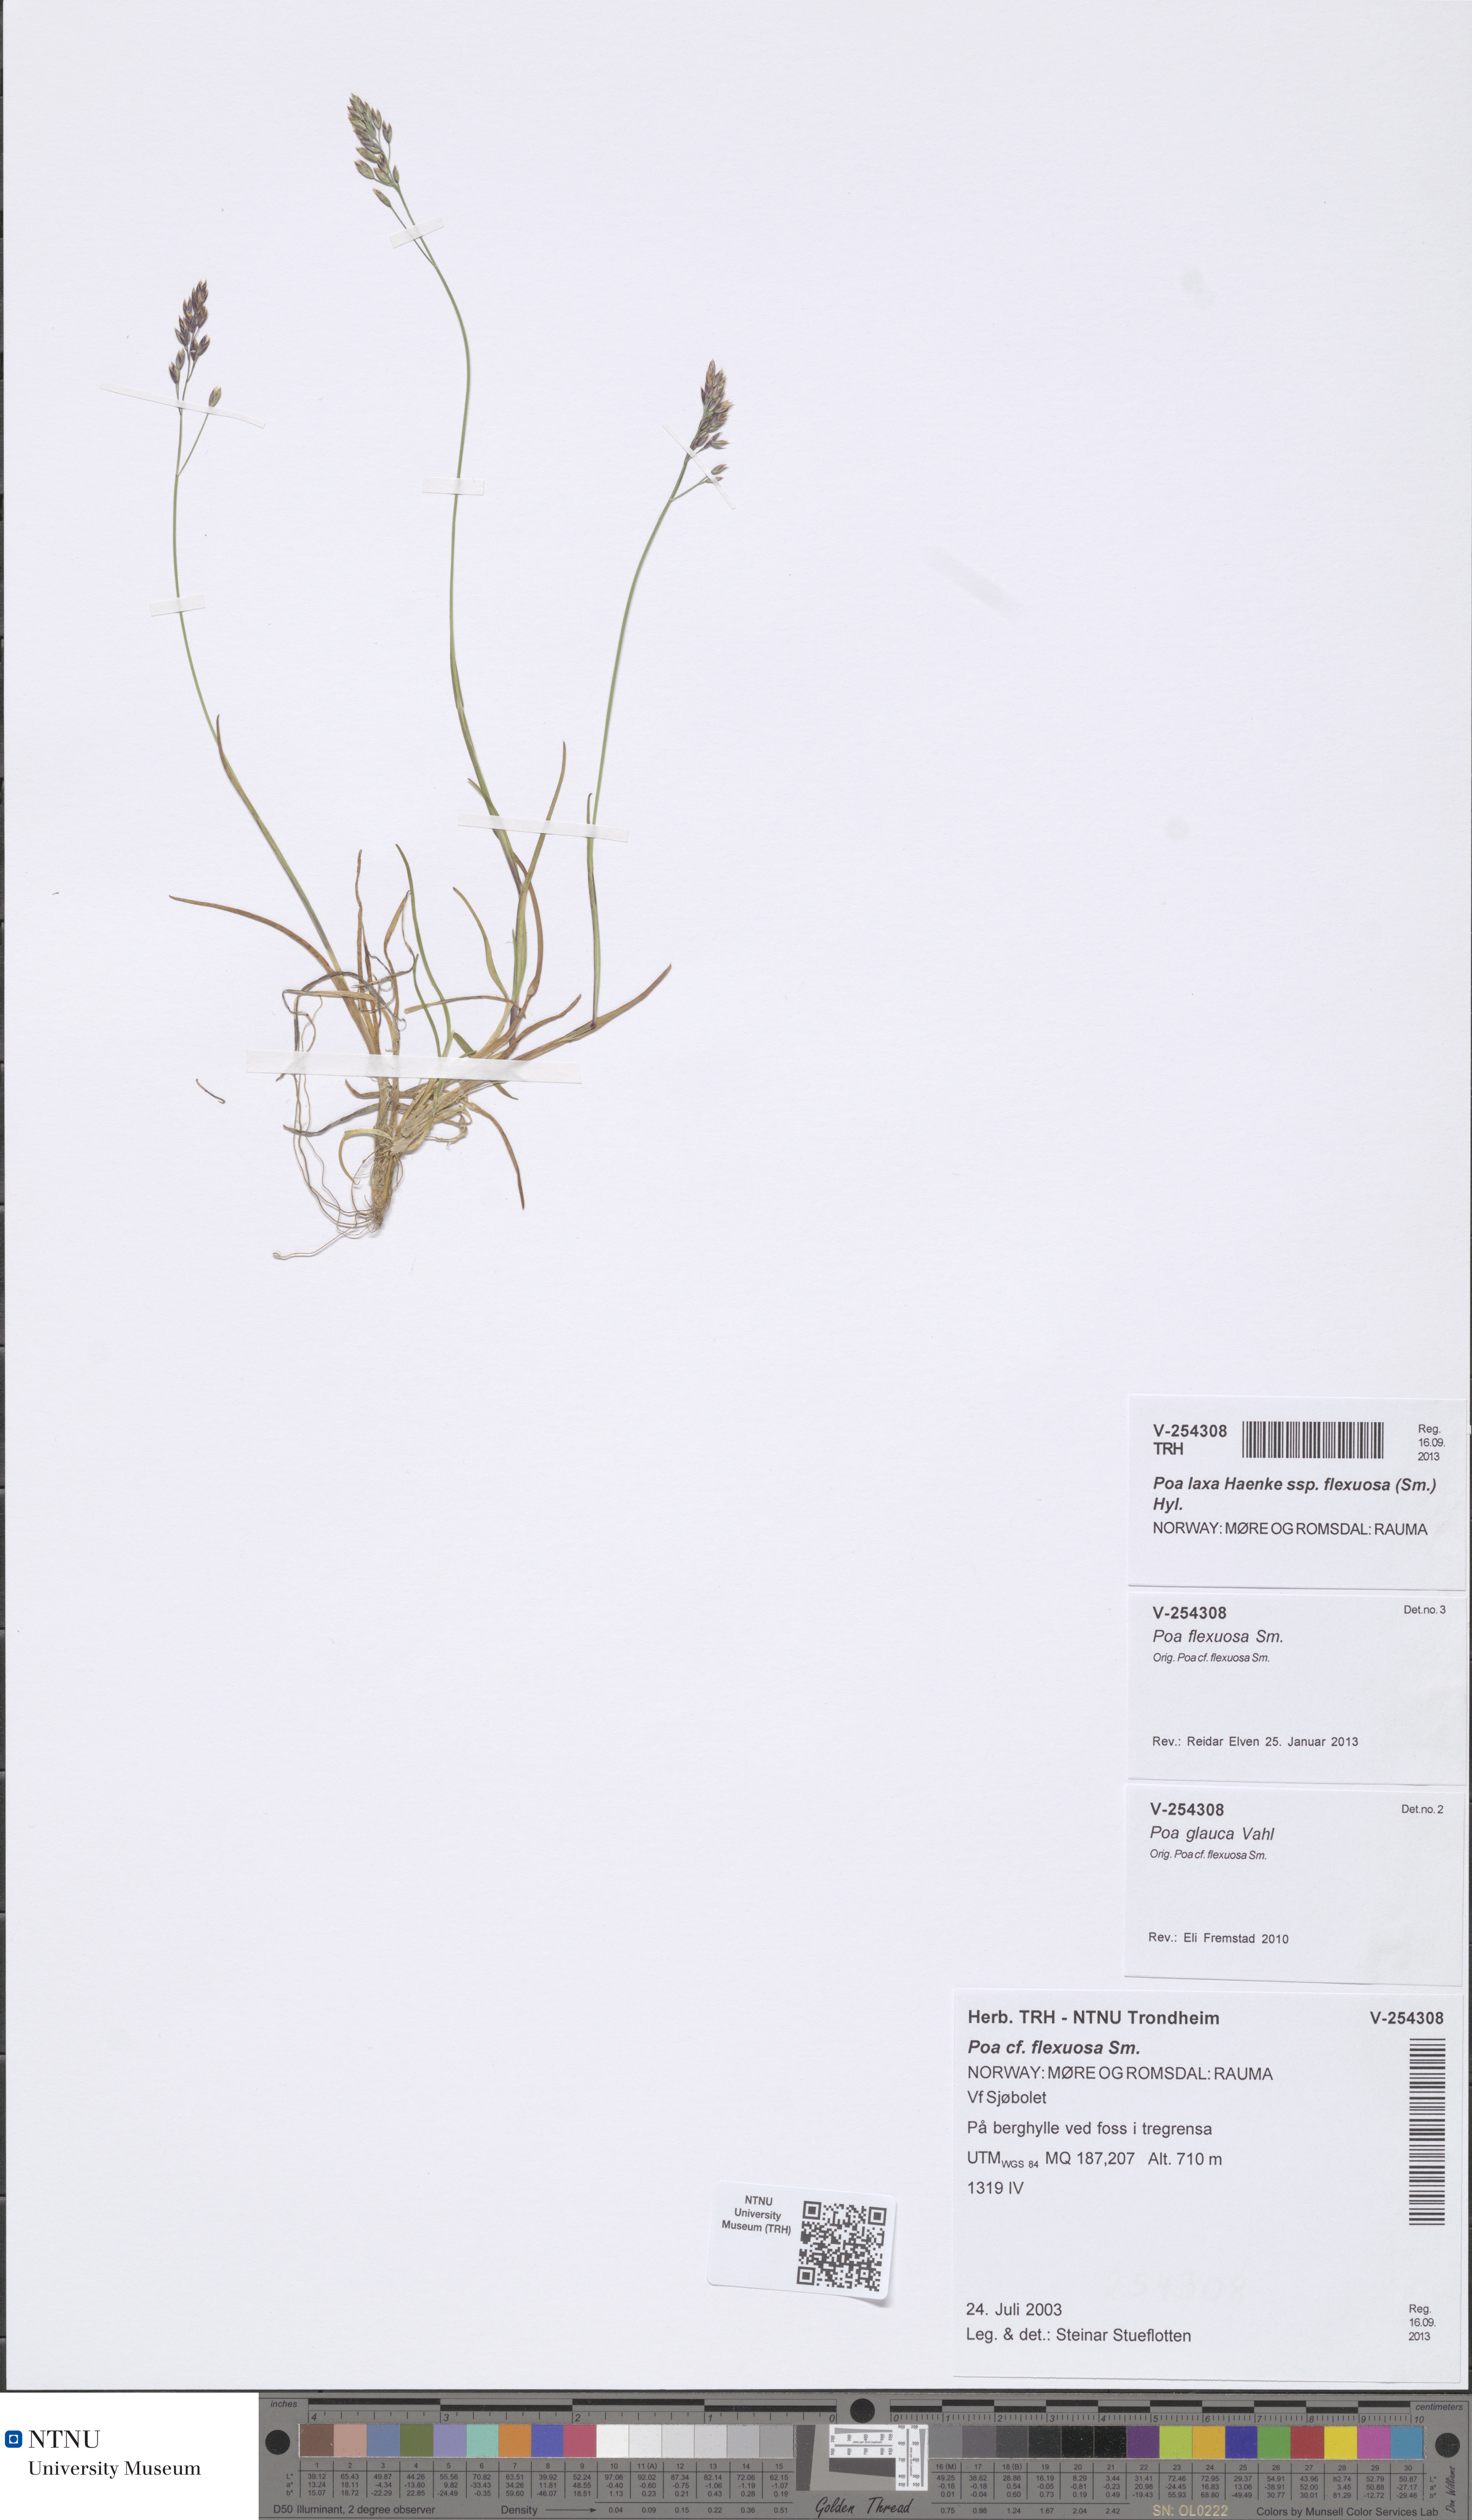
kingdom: Plantae
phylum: Tracheophyta
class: Liliopsida
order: Poales
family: Poaceae
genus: Poa
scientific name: Poa flexuosa
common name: Wavy meadow-grass
